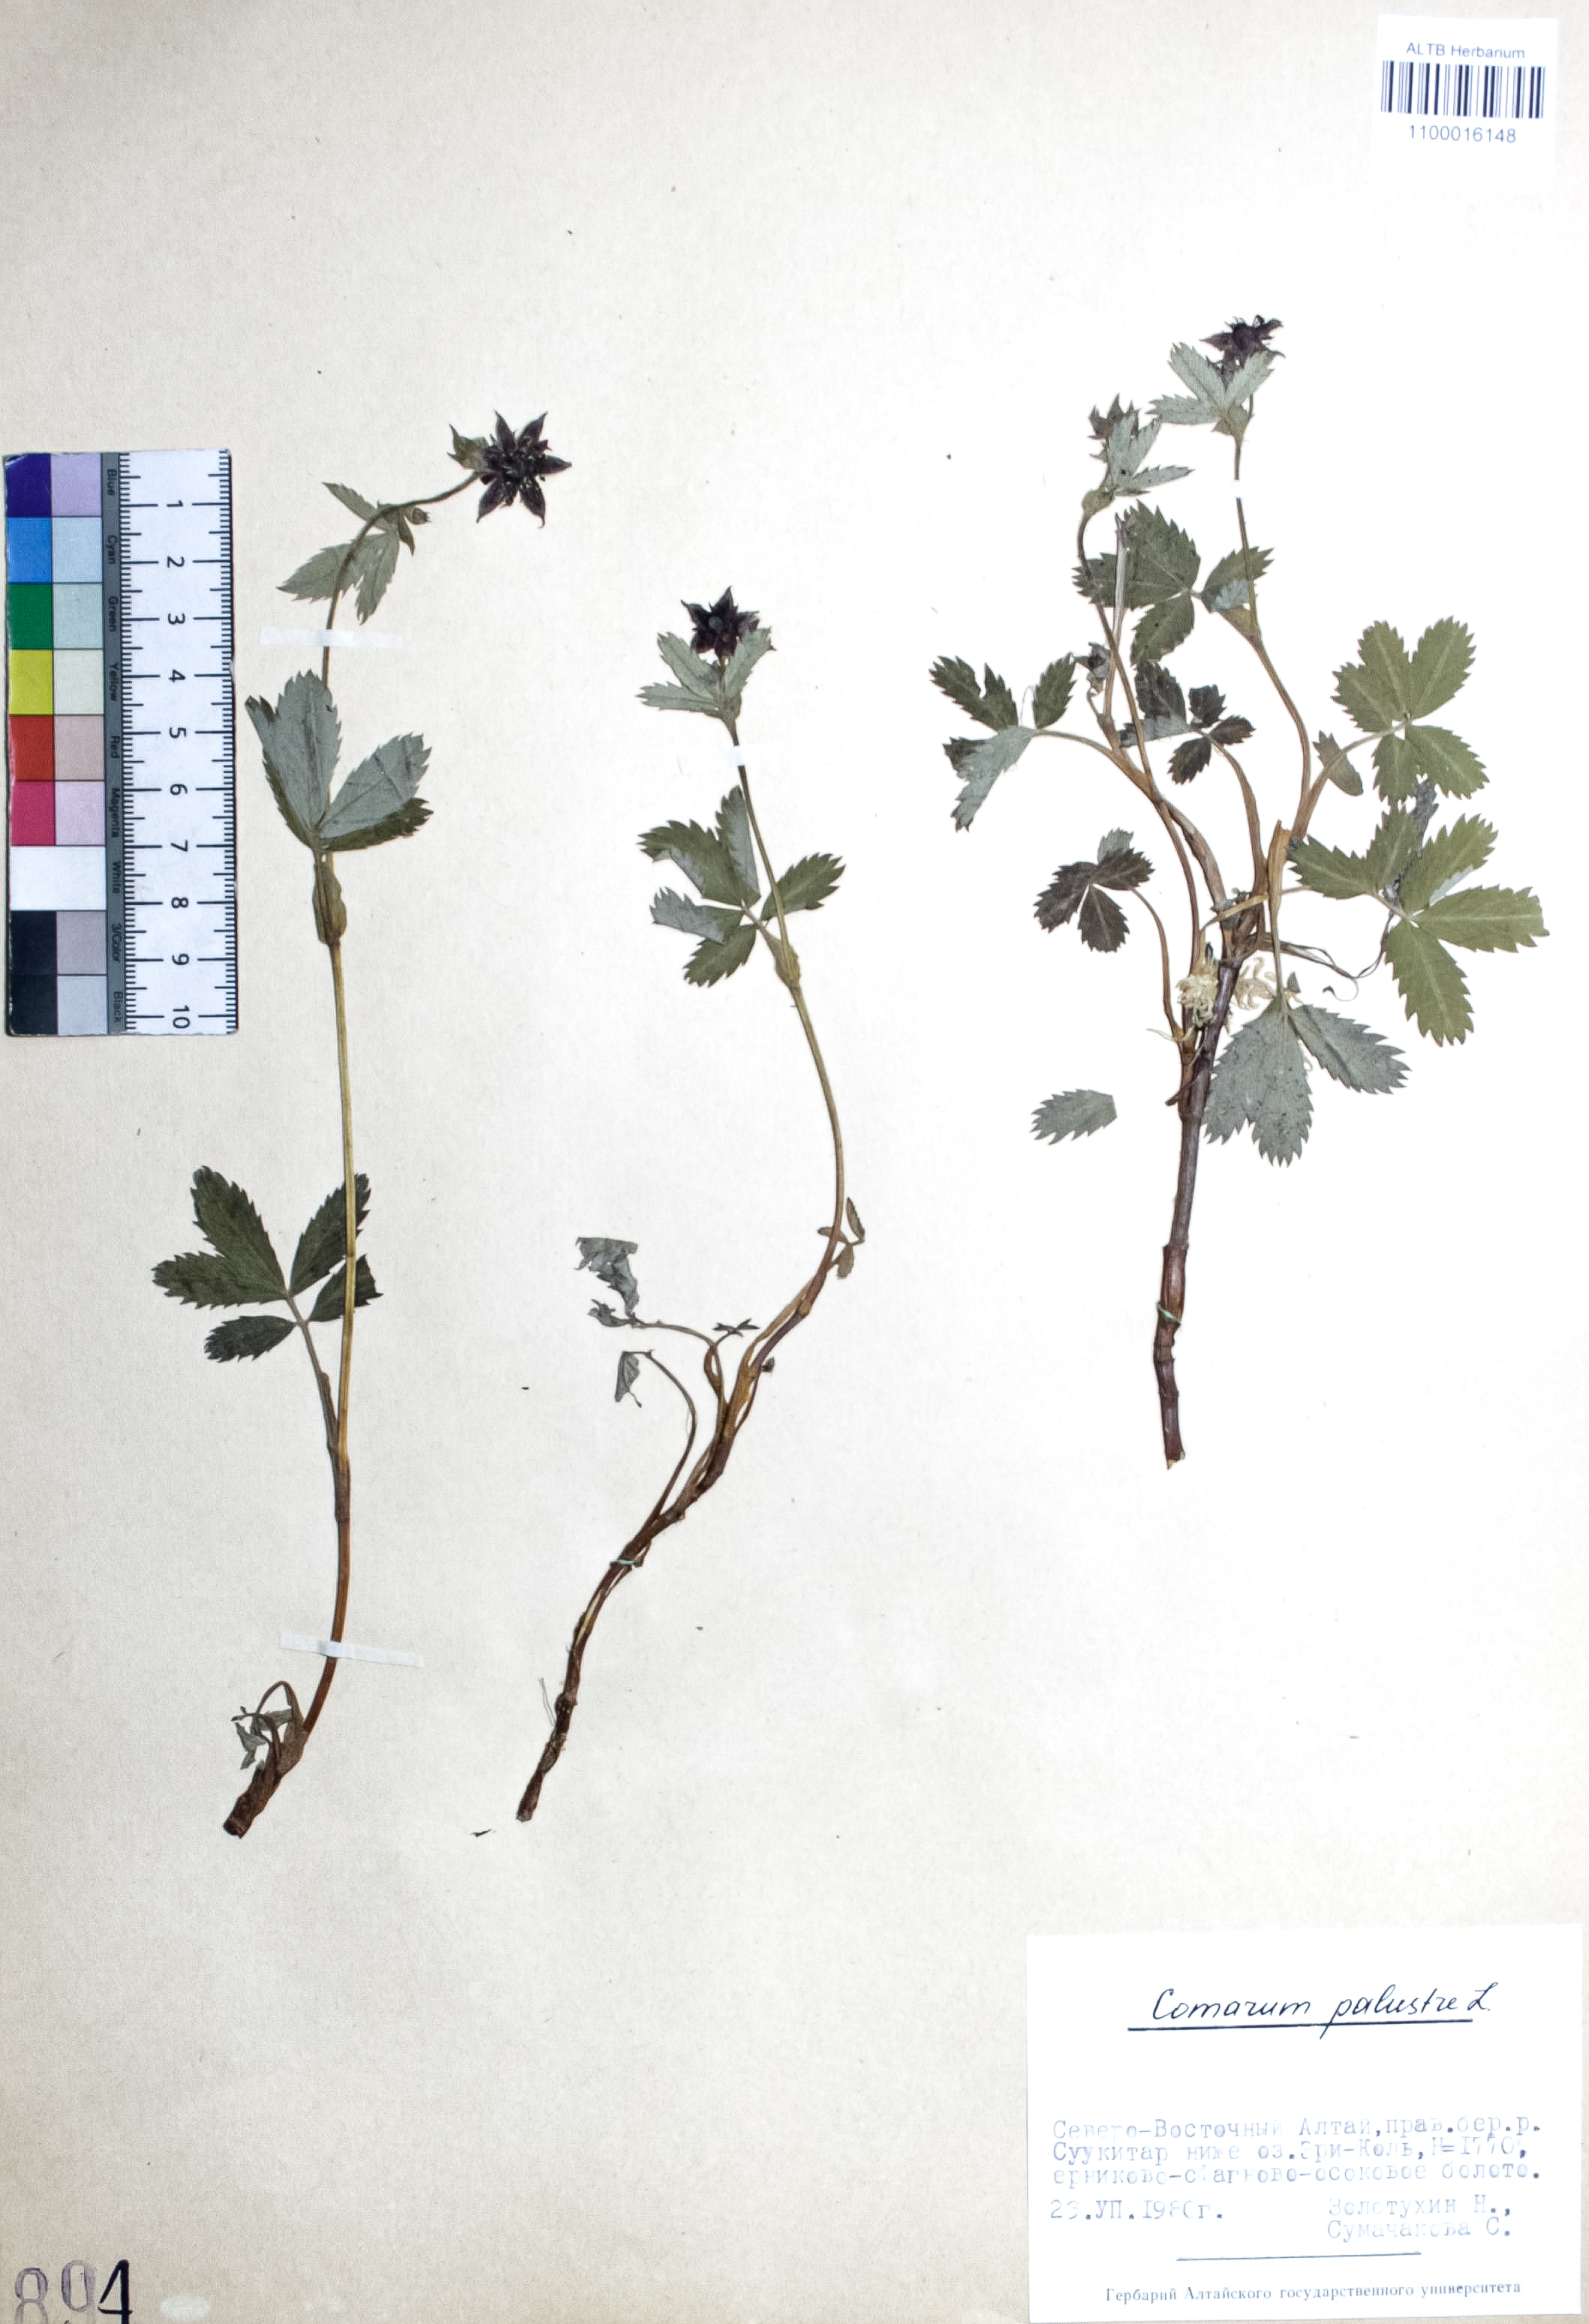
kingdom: Plantae
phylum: Tracheophyta
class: Magnoliopsida
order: Rosales
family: Rosaceae
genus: Comarum
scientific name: Comarum palustre
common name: Marsh cinquefoil
